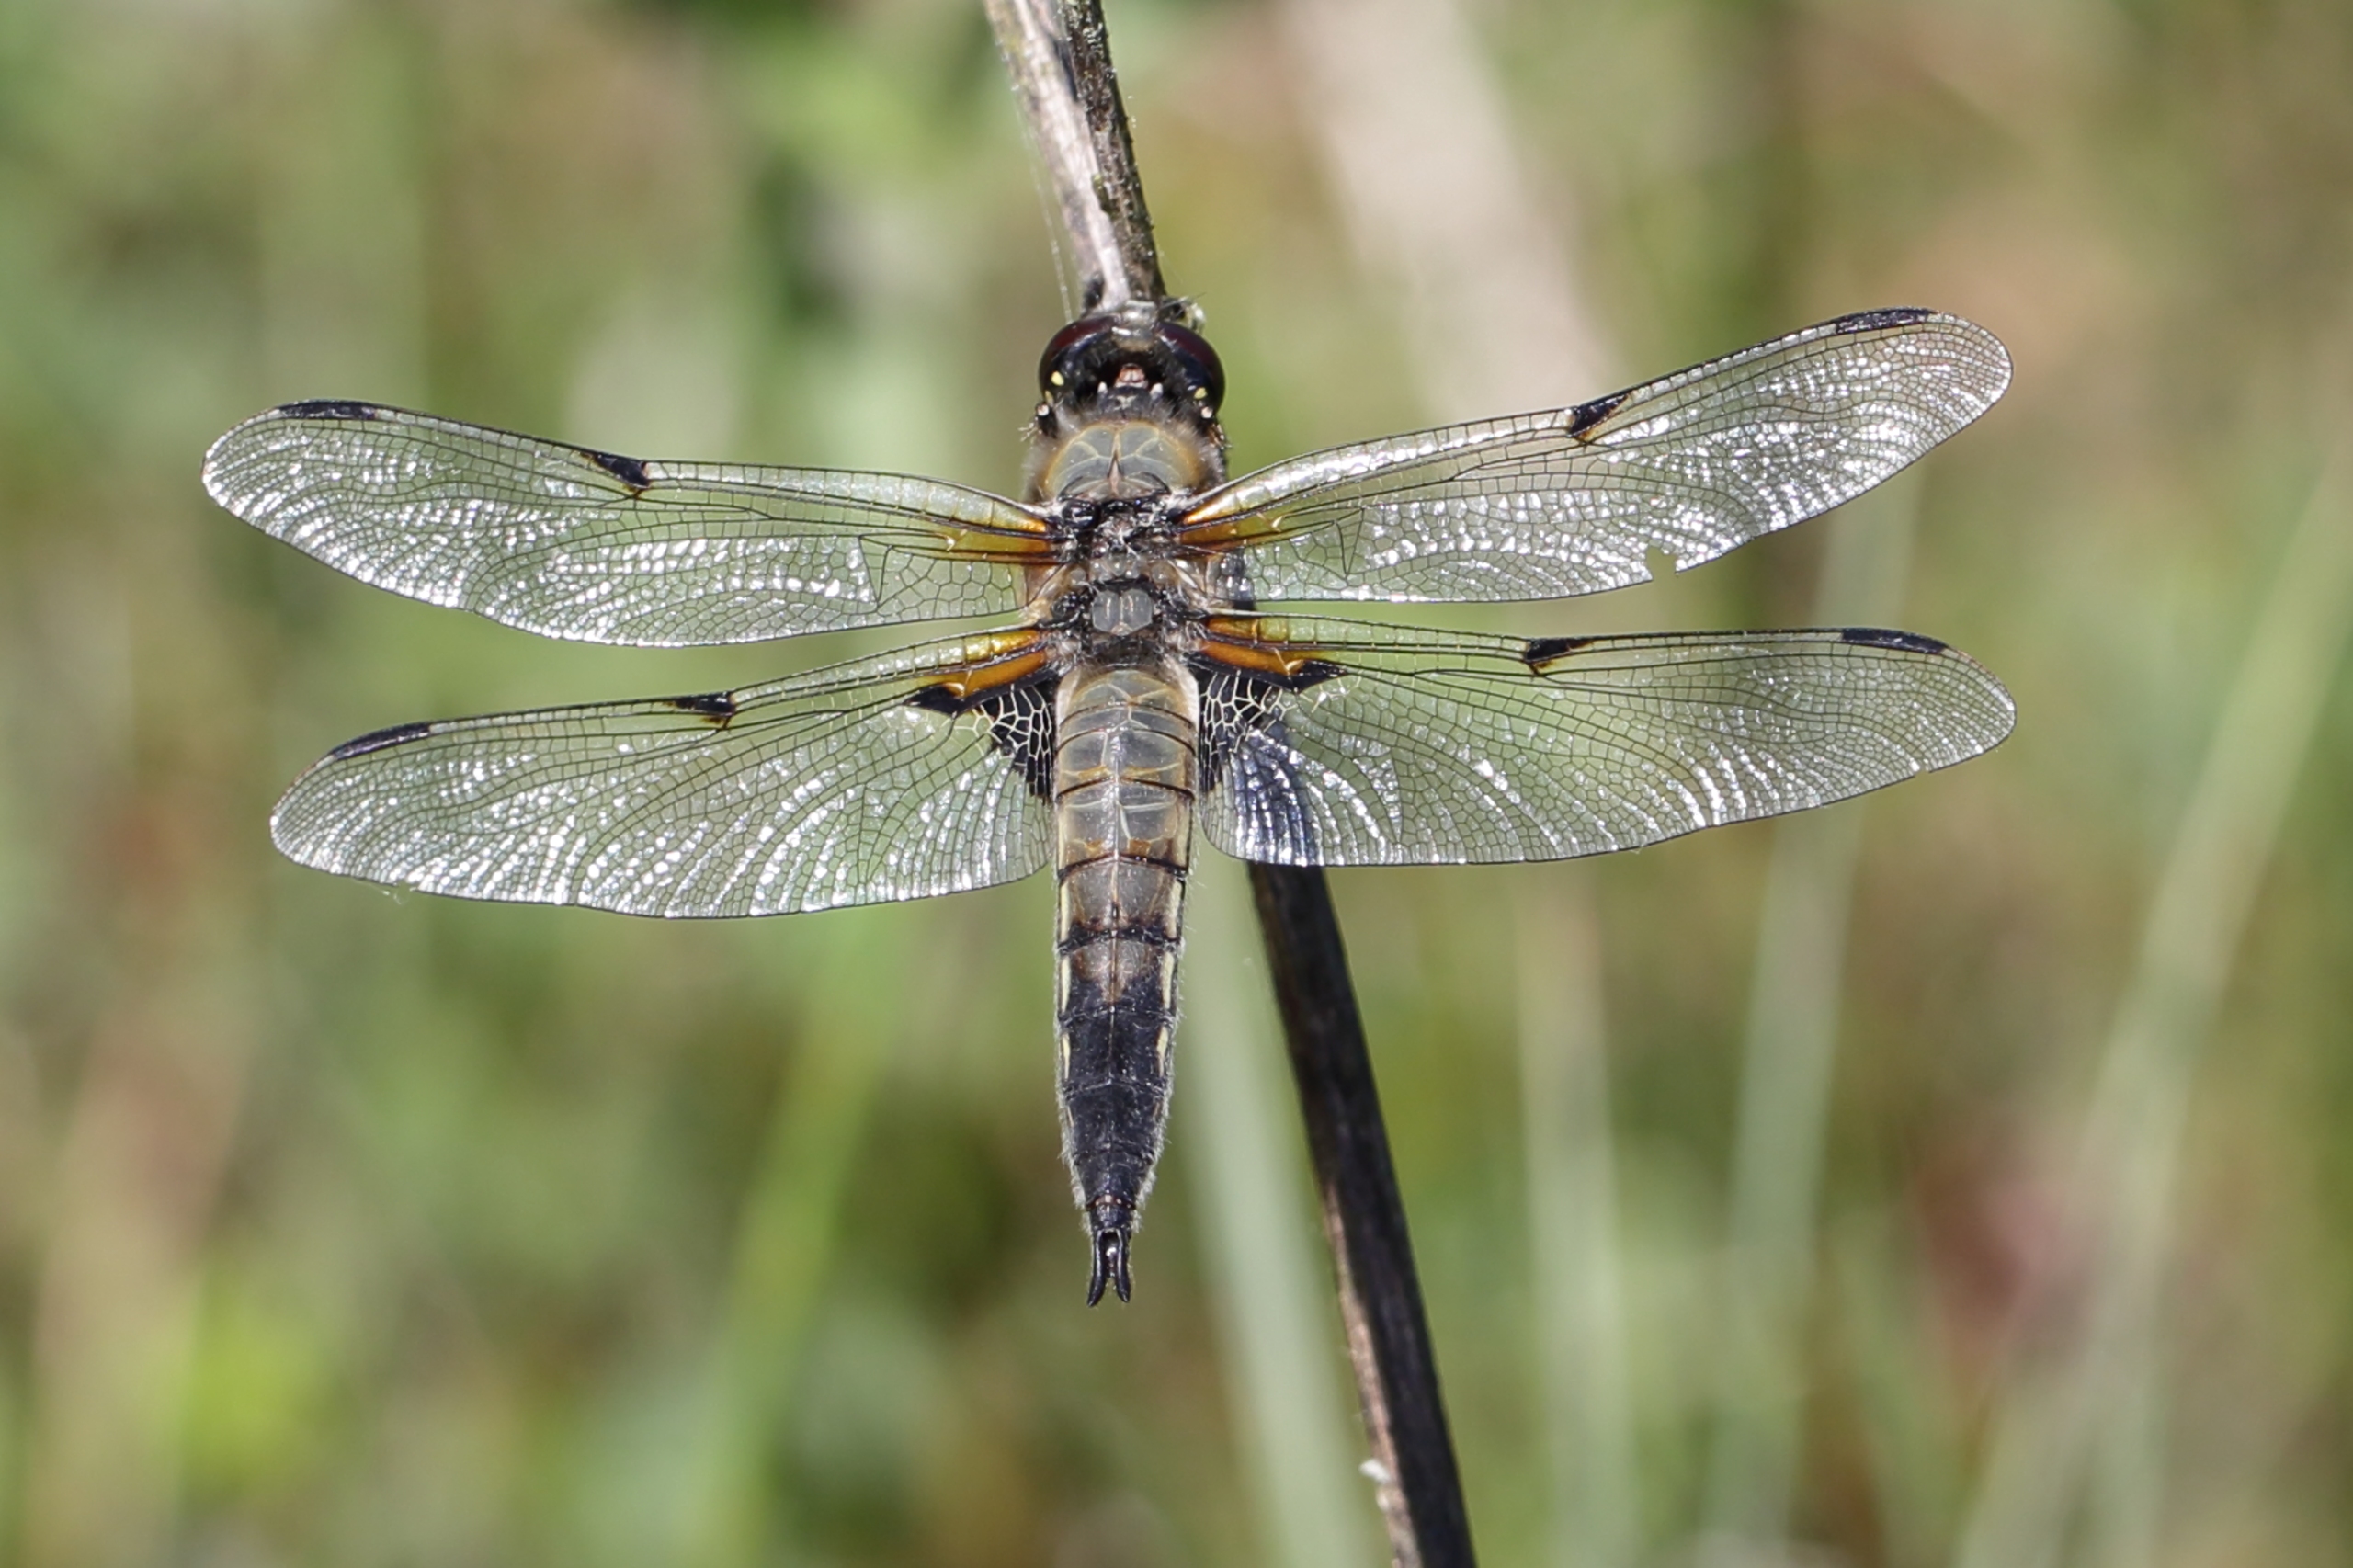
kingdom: Animalia
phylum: Arthropoda
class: Insecta
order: Odonata
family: Libellulidae
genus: Libellula
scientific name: Libellula quadrimaculata
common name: Fireplettet libel
